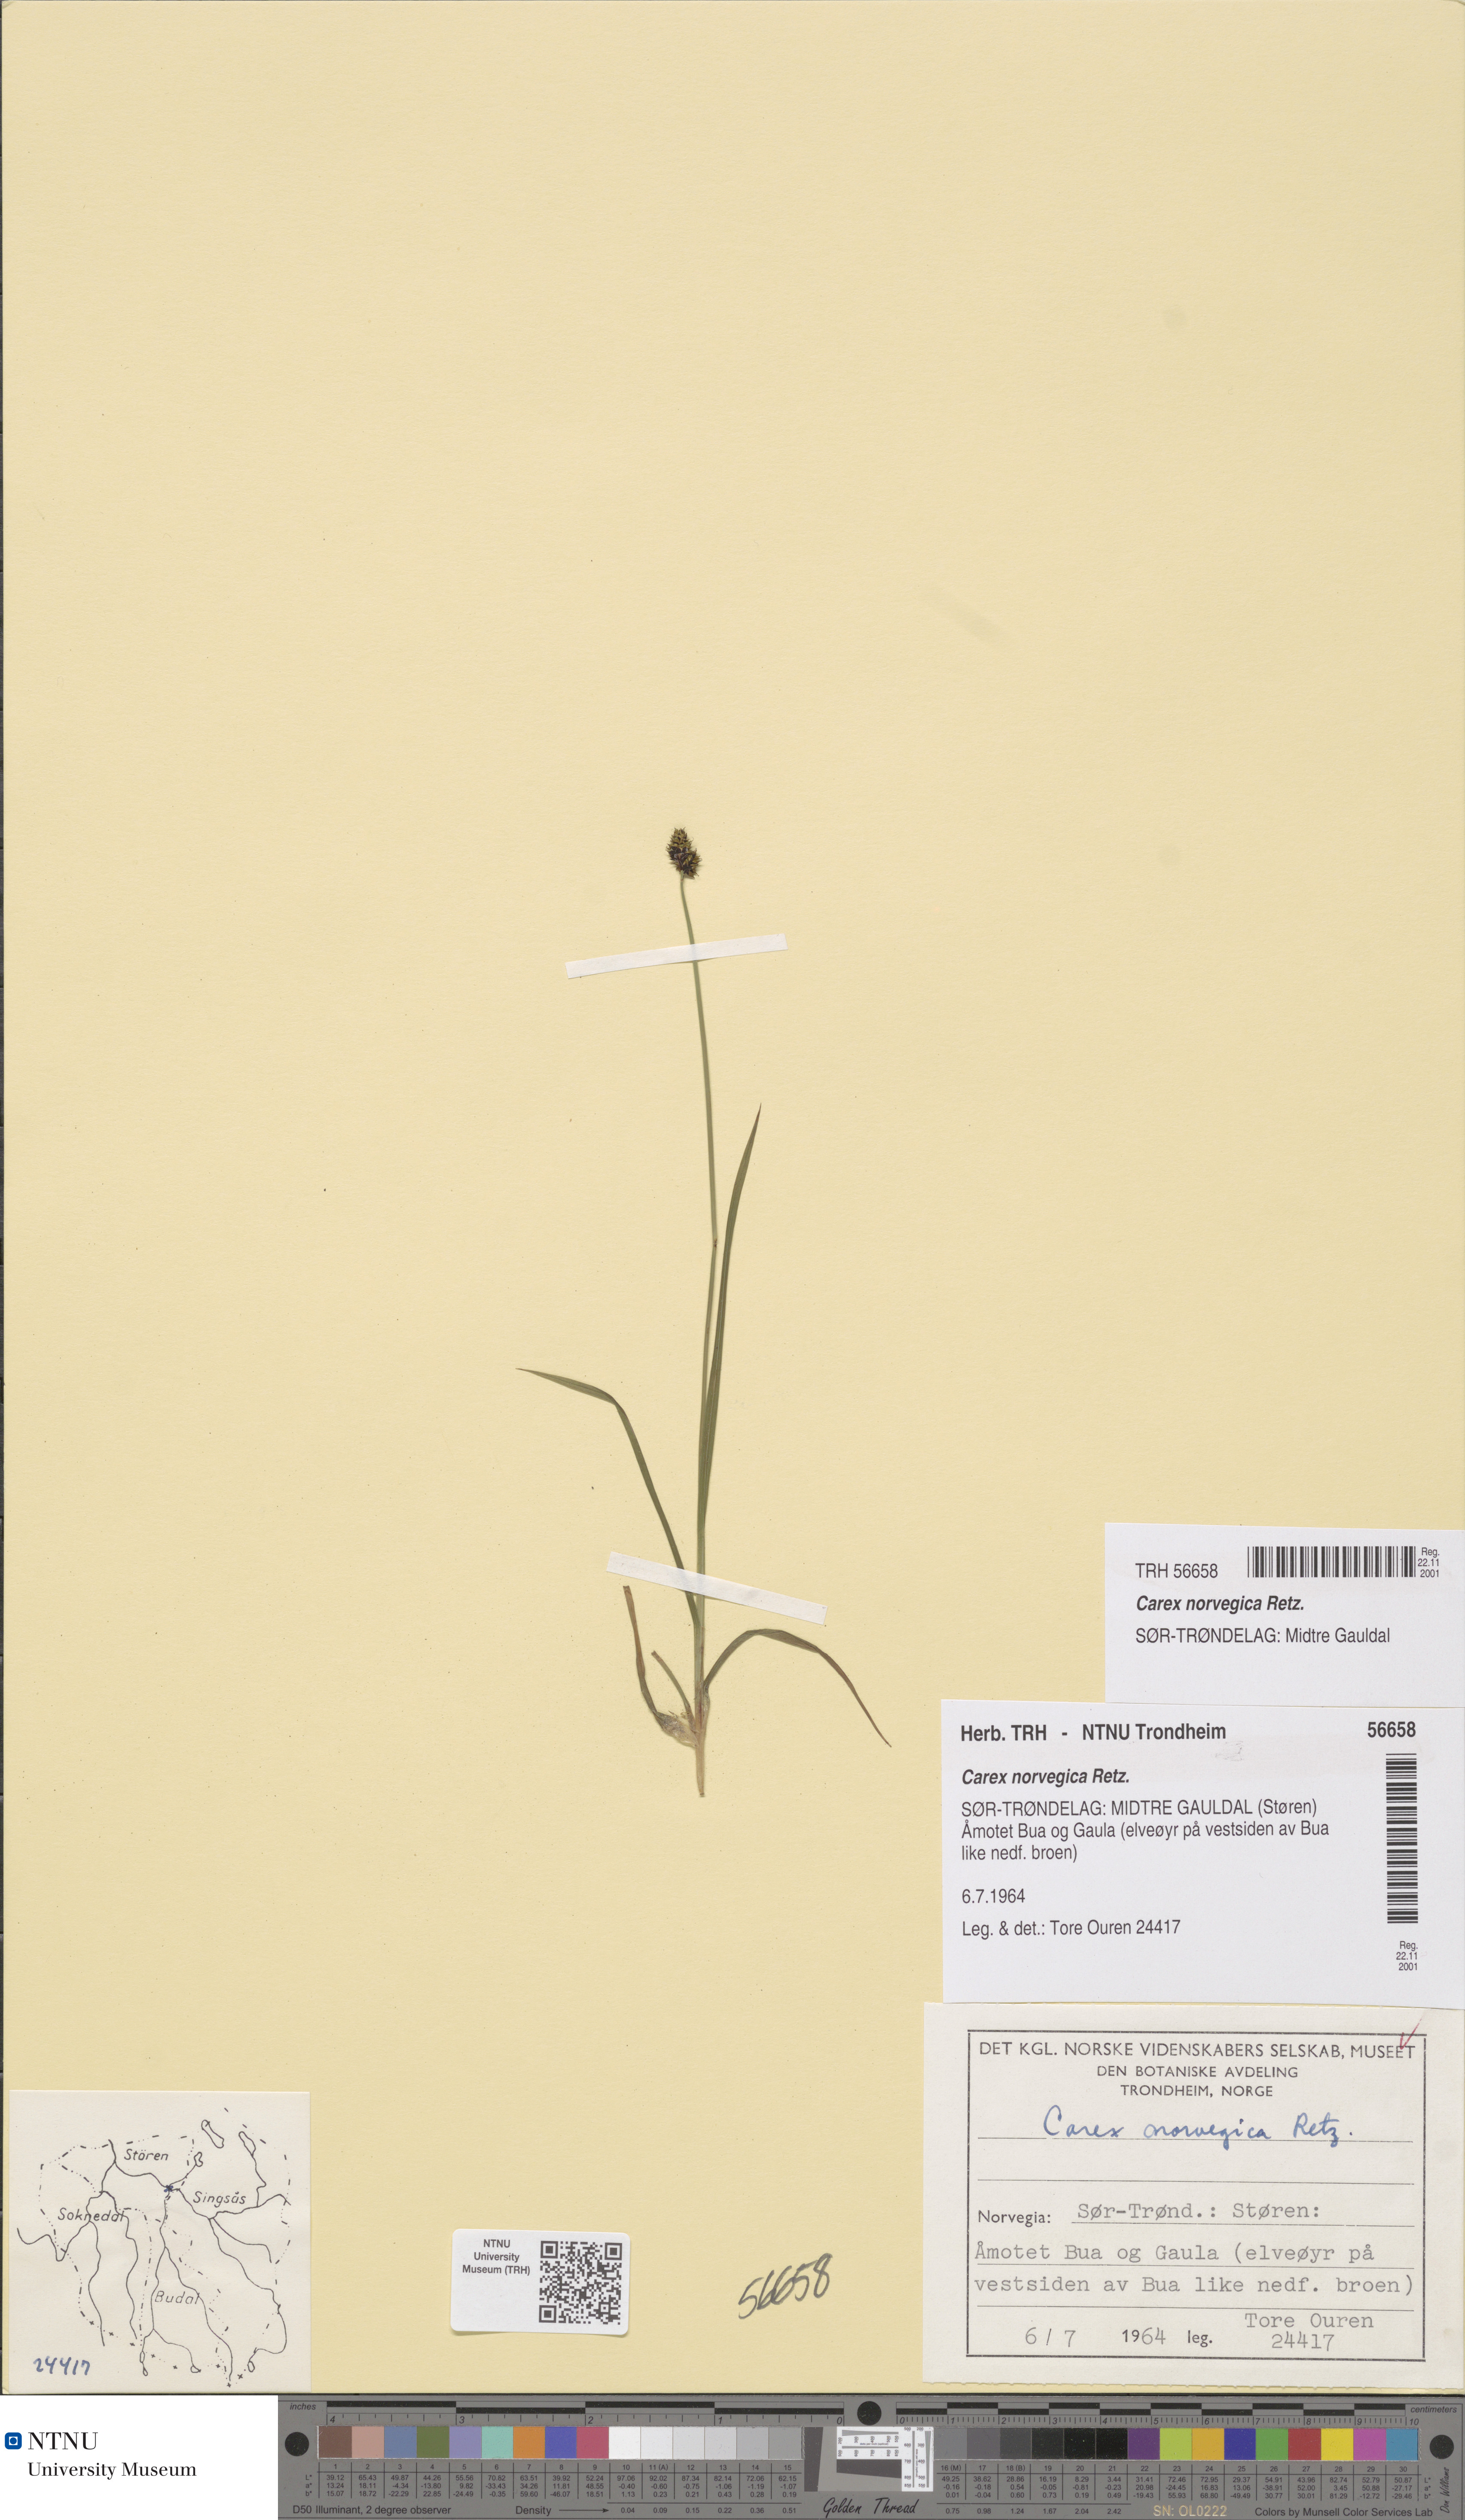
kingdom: Plantae
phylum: Tracheophyta
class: Liliopsida
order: Poales
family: Cyperaceae
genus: Carex
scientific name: Carex norvegica
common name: Close-headed alpine-sedge
